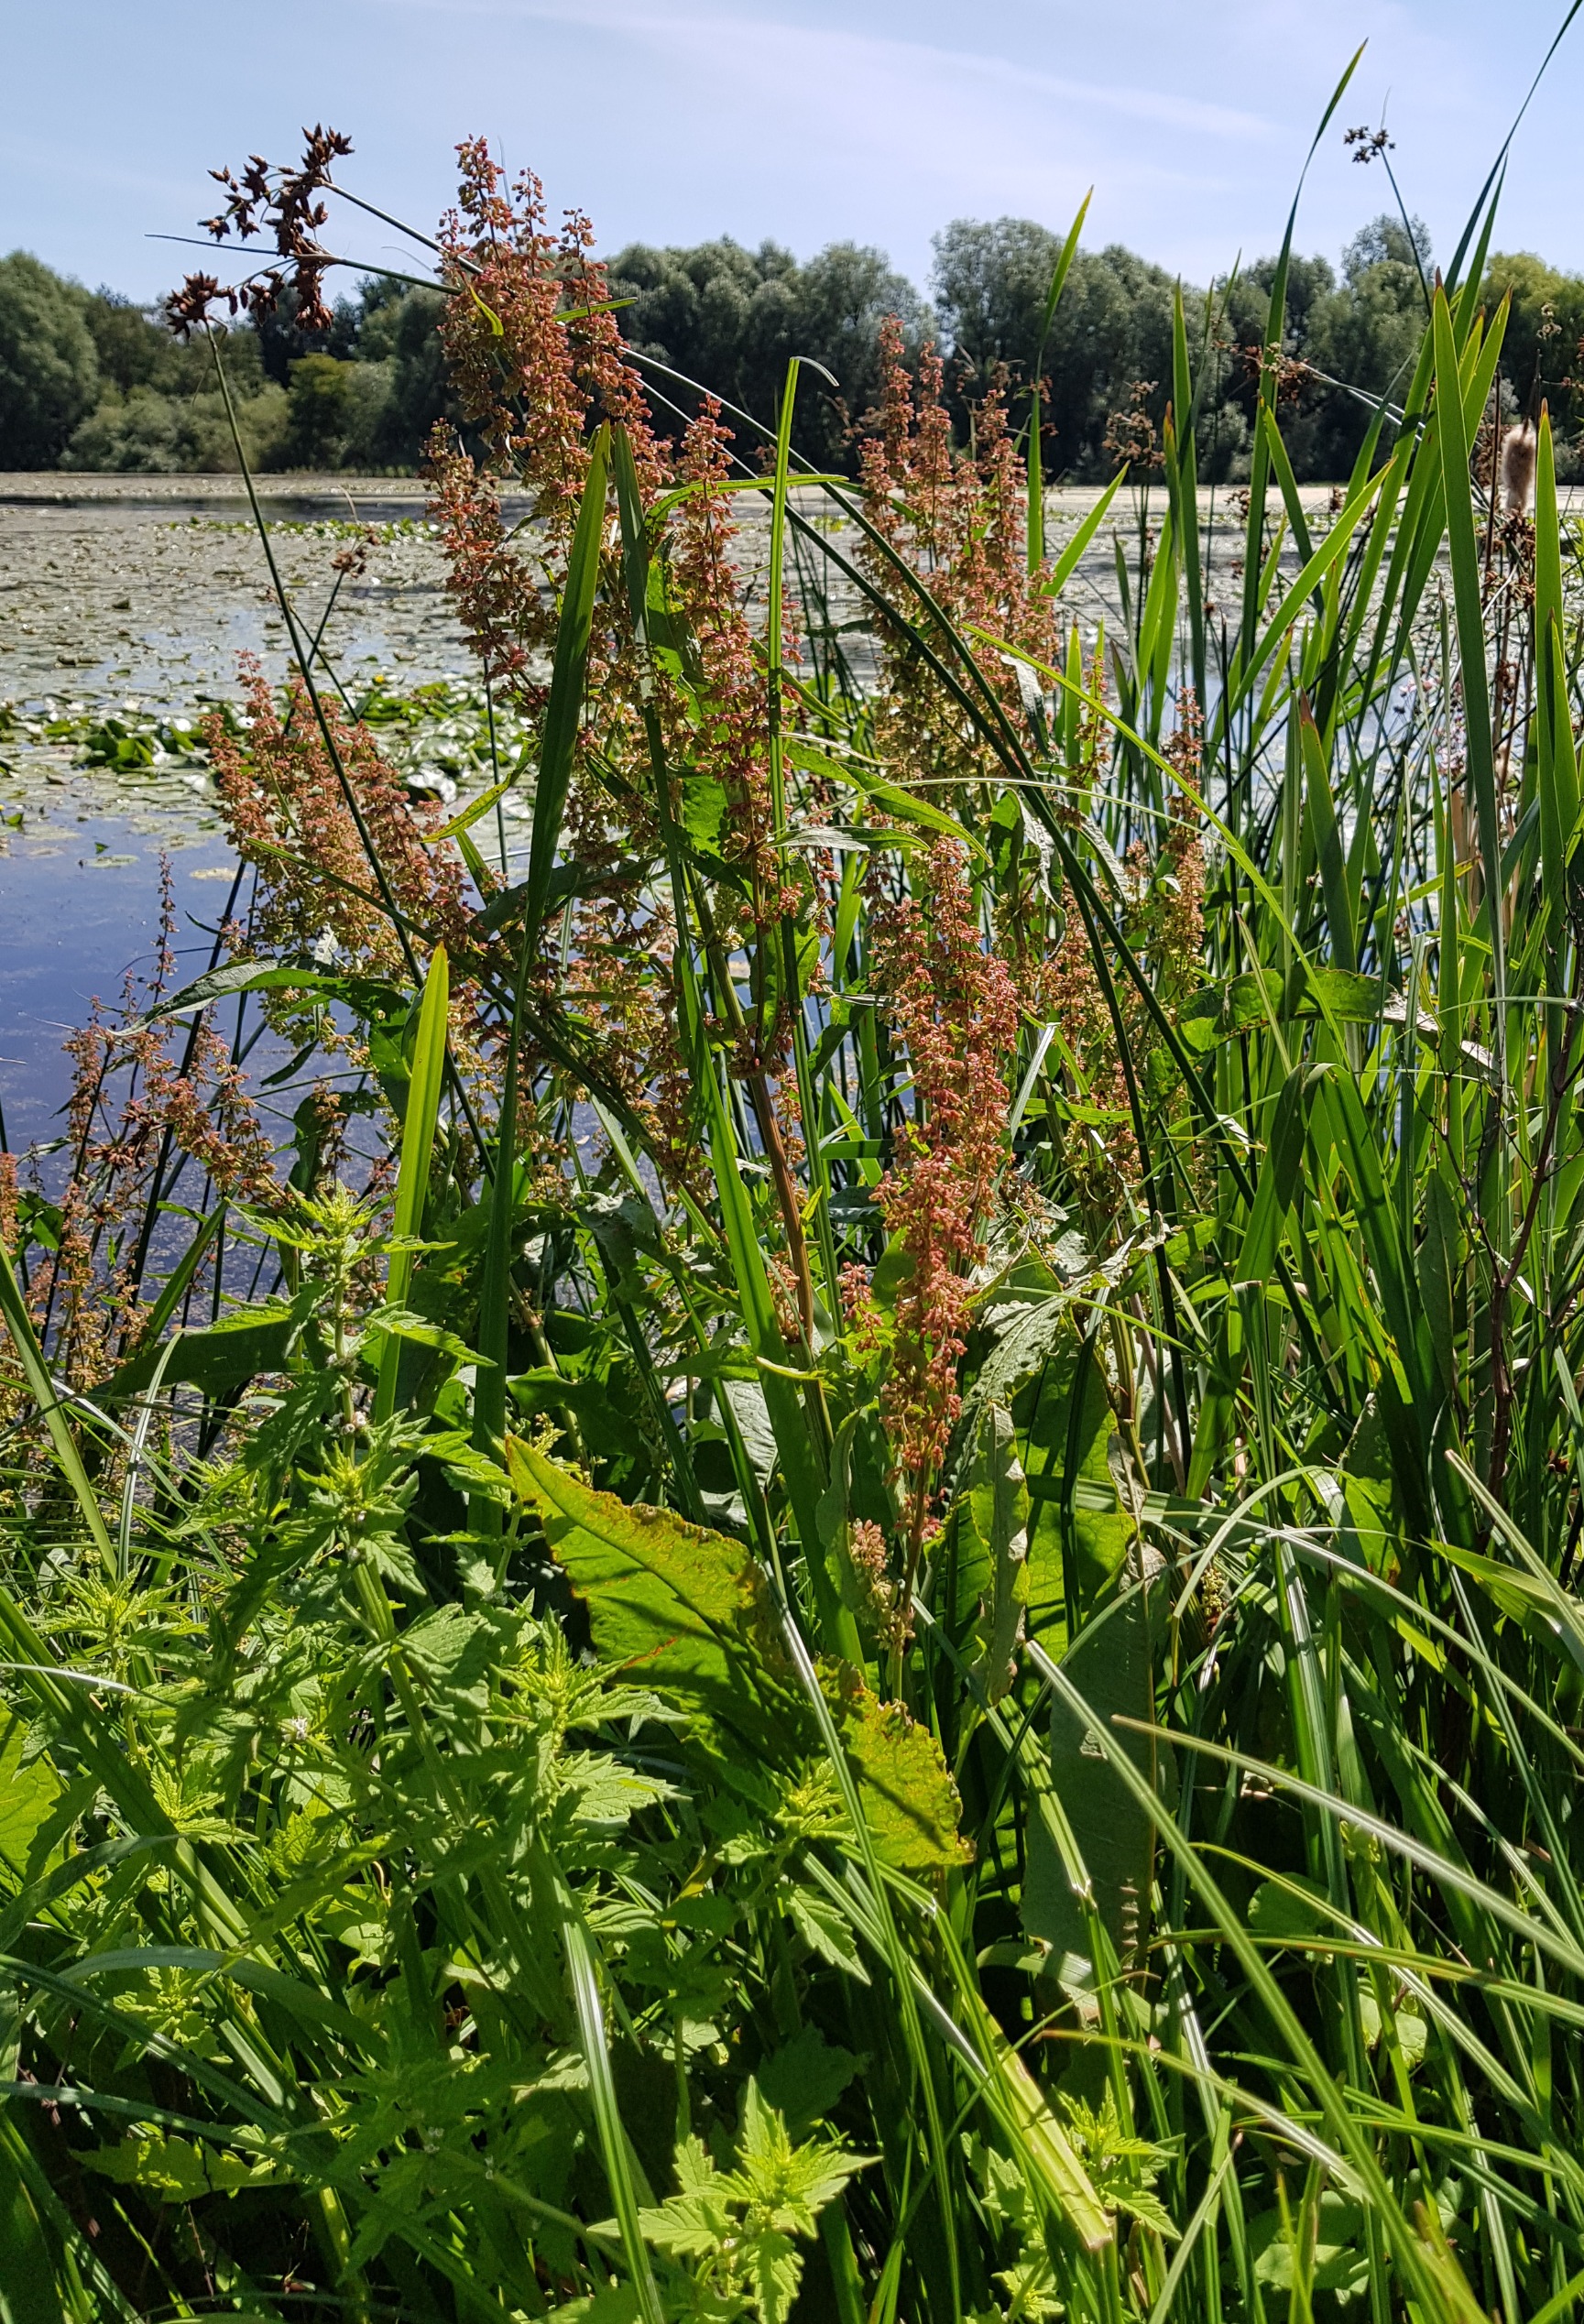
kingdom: Plantae
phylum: Tracheophyta
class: Magnoliopsida
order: Caryophyllales
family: Polygonaceae
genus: Rumex
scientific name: Rumex hydrolapathum
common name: Vand-skræppe
